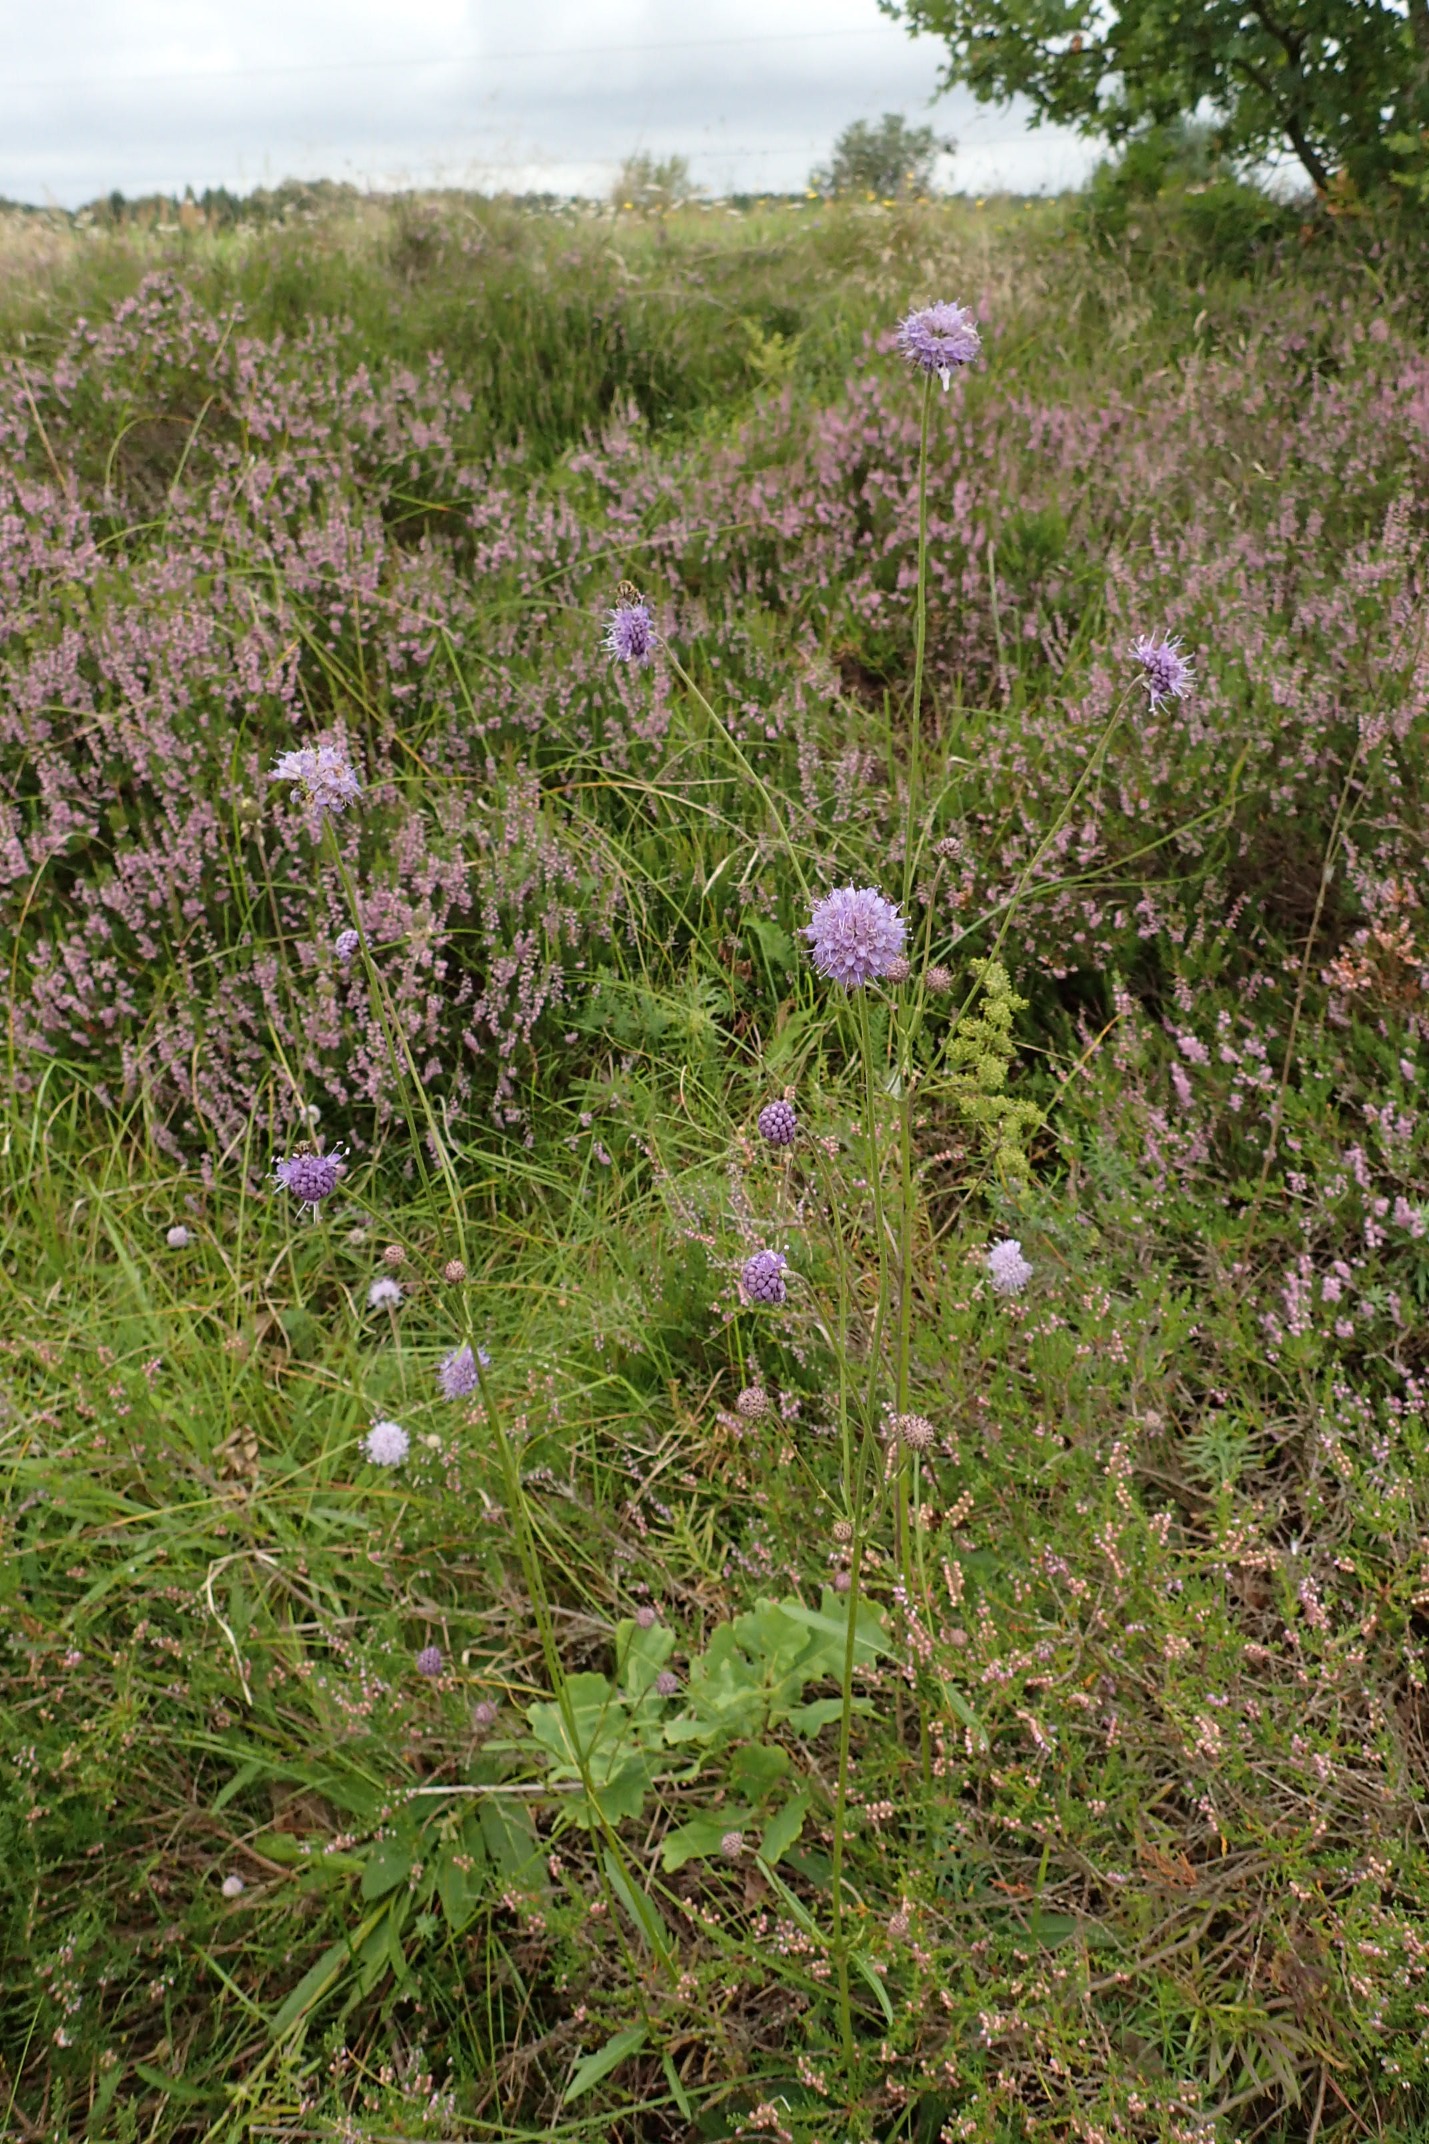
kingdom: Plantae
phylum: Tracheophyta
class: Magnoliopsida
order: Dipsacales
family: Caprifoliaceae
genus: Succisa
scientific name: Succisa pratensis
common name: Djævelsbid
